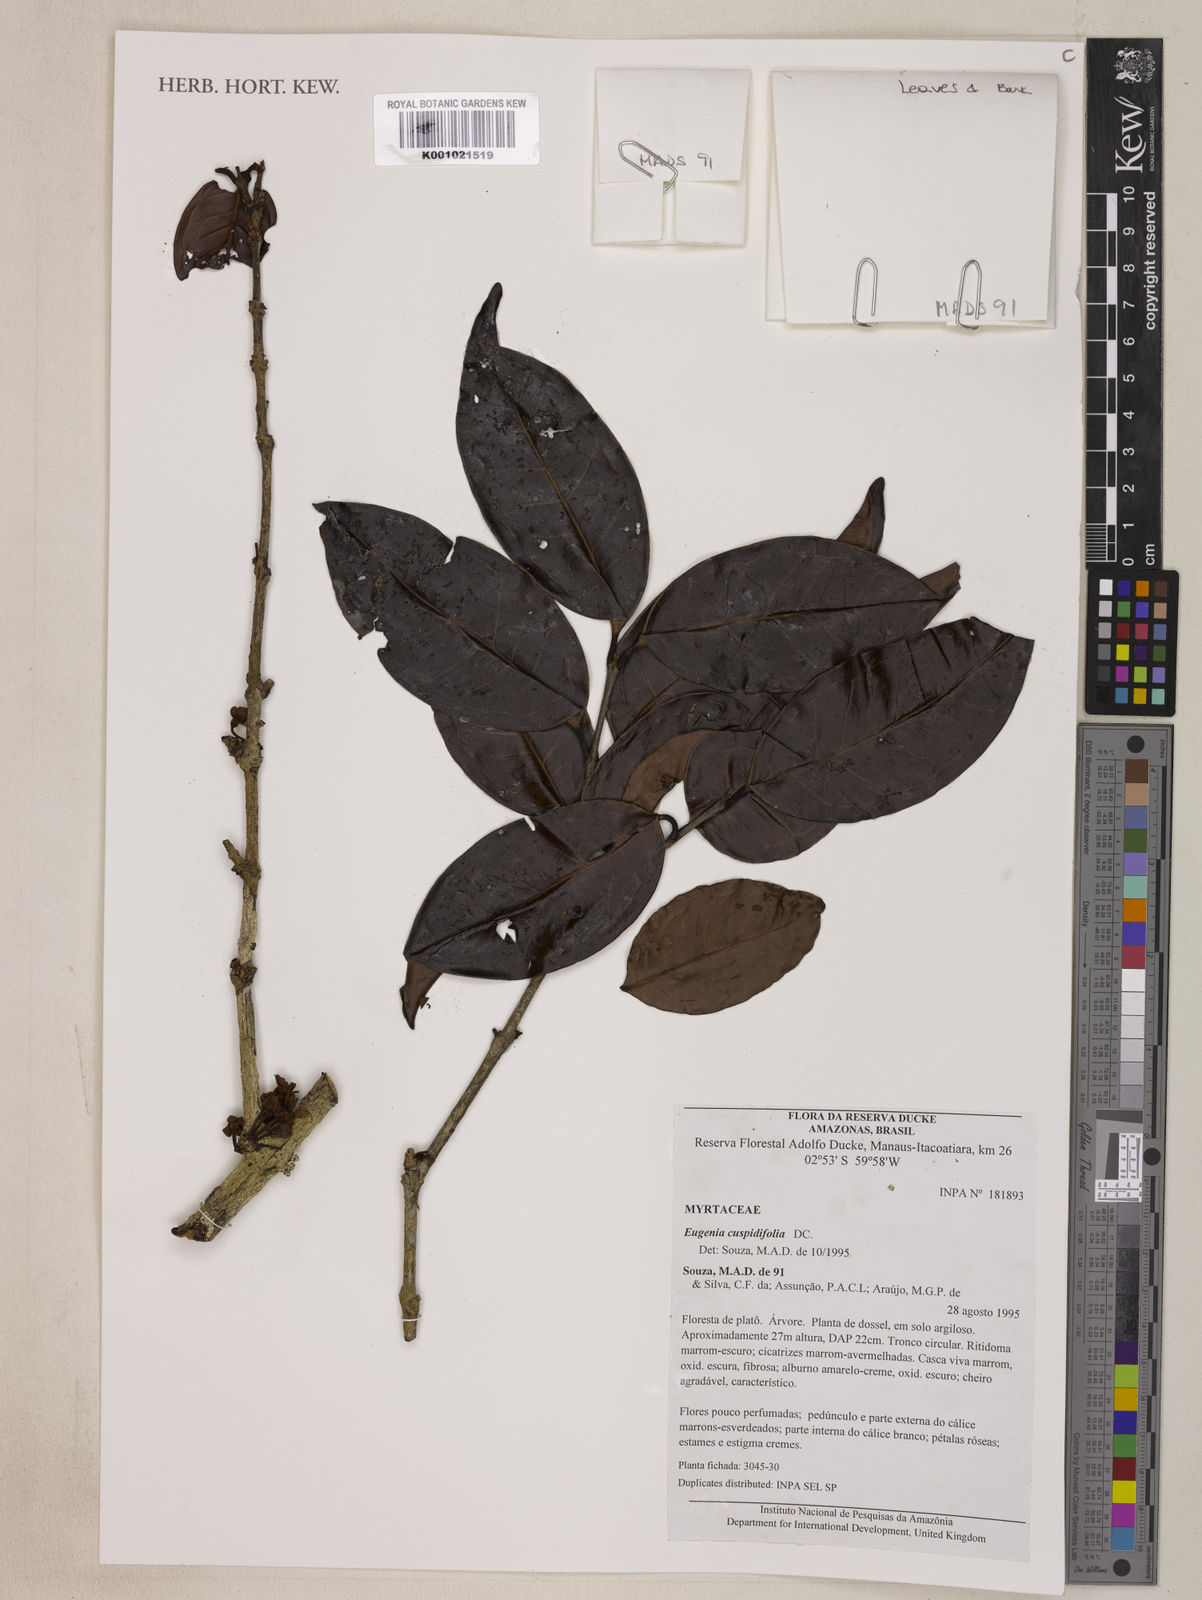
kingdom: Plantae
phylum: Tracheophyta
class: Magnoliopsida
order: Myrtales
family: Myrtaceae
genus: Eugenia
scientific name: Eugenia cuspidifolia
